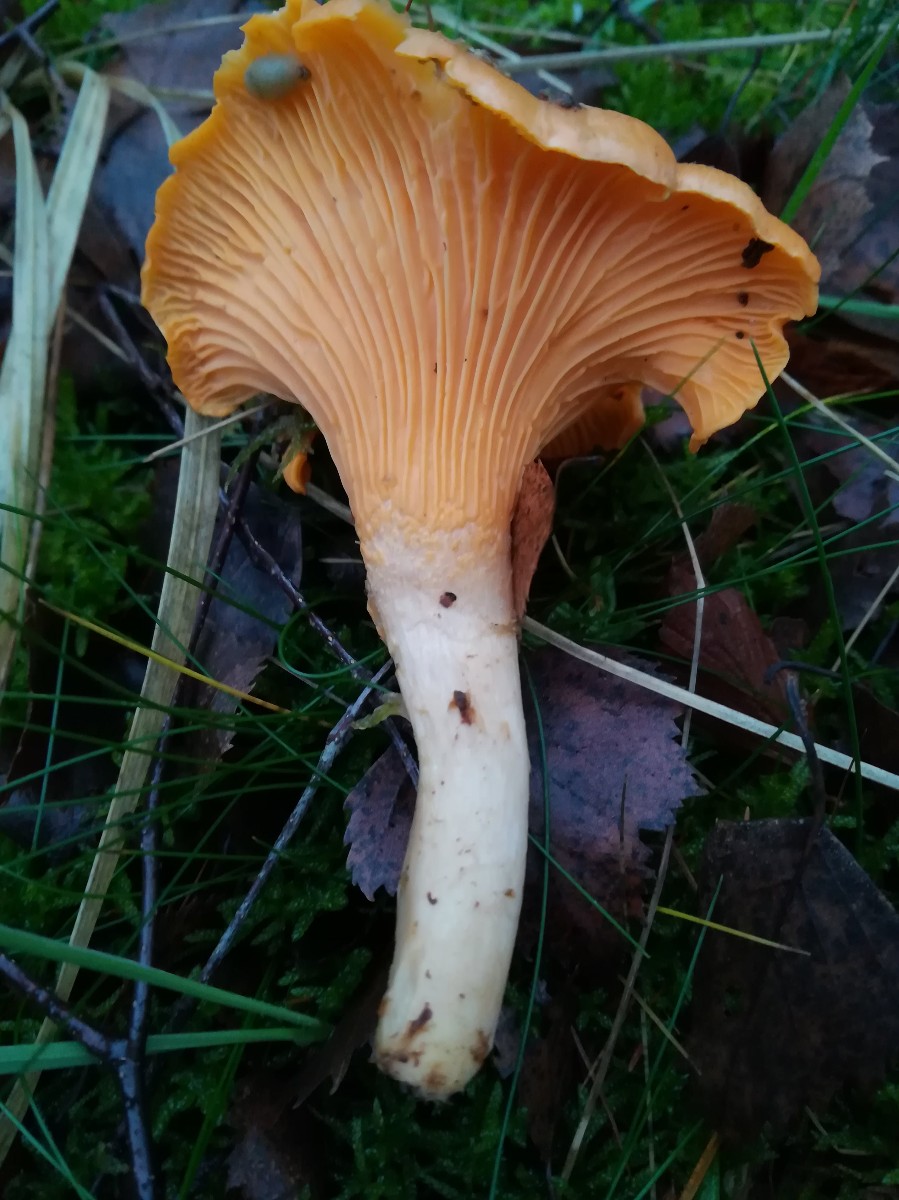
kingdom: Fungi
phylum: Basidiomycota
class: Agaricomycetes
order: Cantharellales
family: Hydnaceae
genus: Cantharellus
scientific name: Cantharellus cibarius
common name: almindelig kantarel
